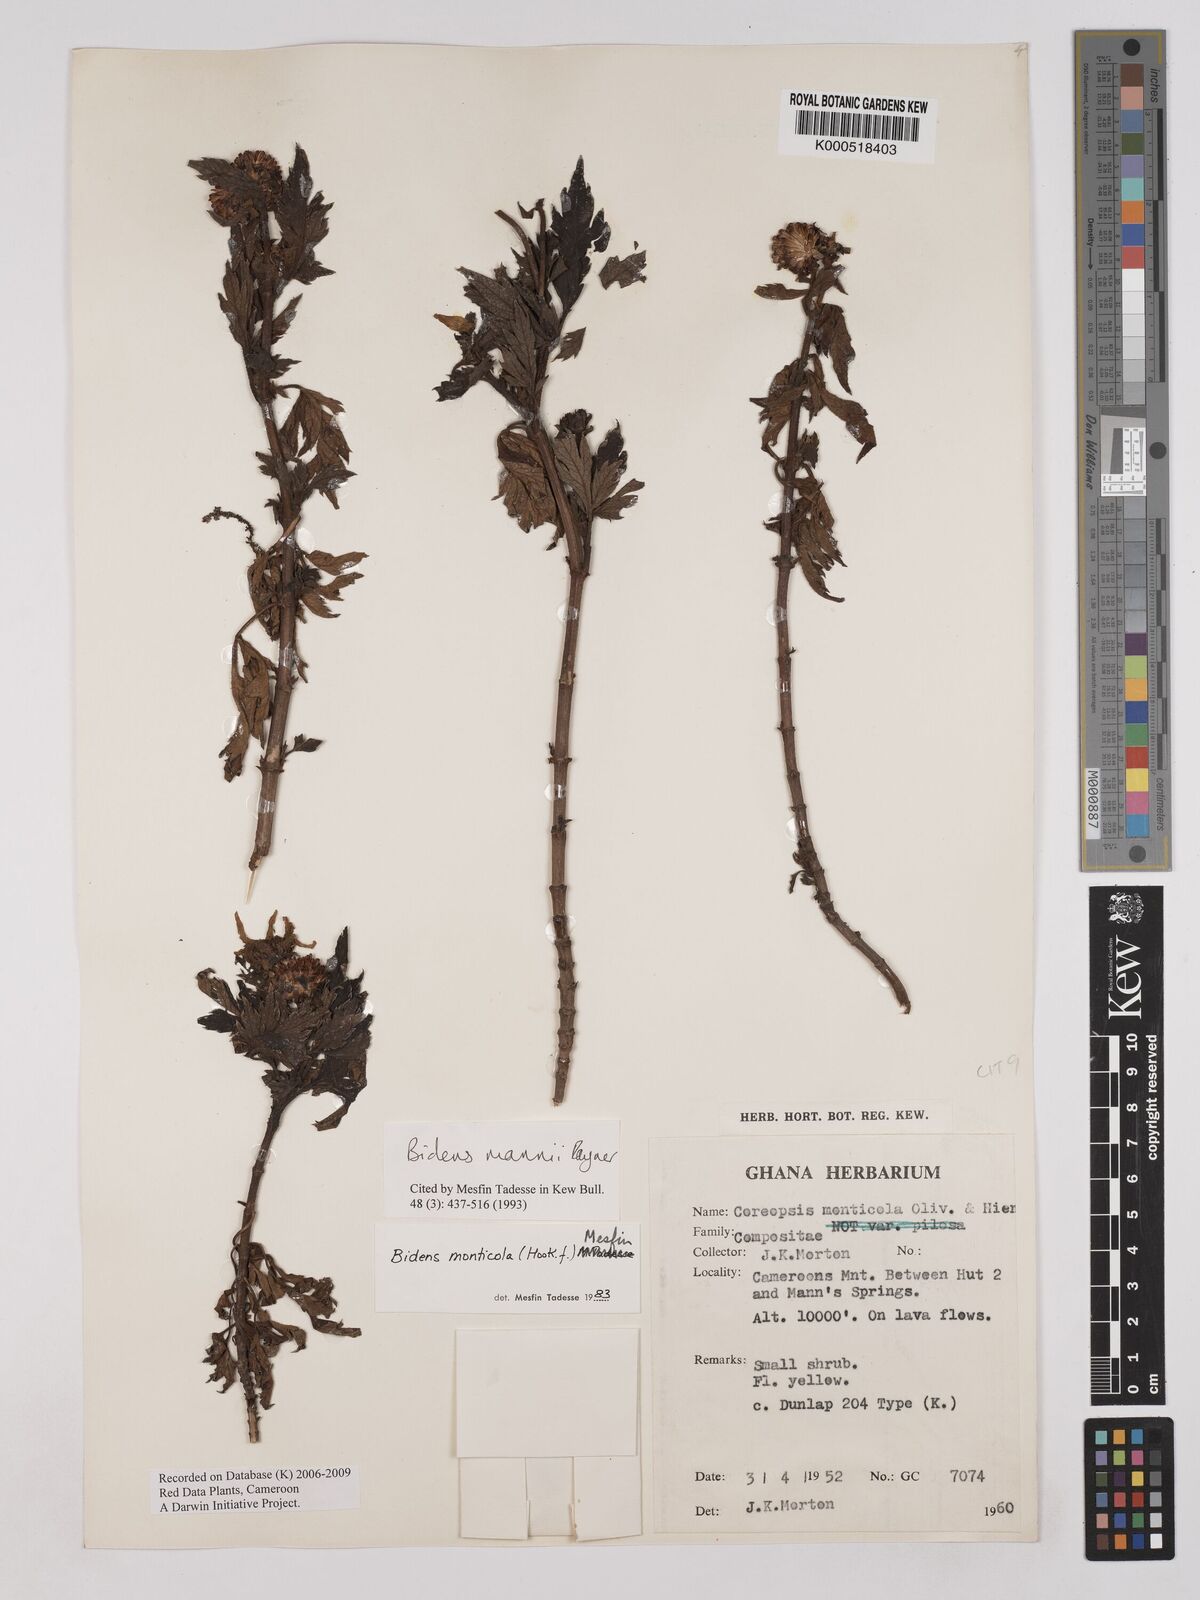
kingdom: Plantae
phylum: Tracheophyta
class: Magnoliopsida
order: Asterales
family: Asteraceae
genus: Bidens
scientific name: Bidens mannii
